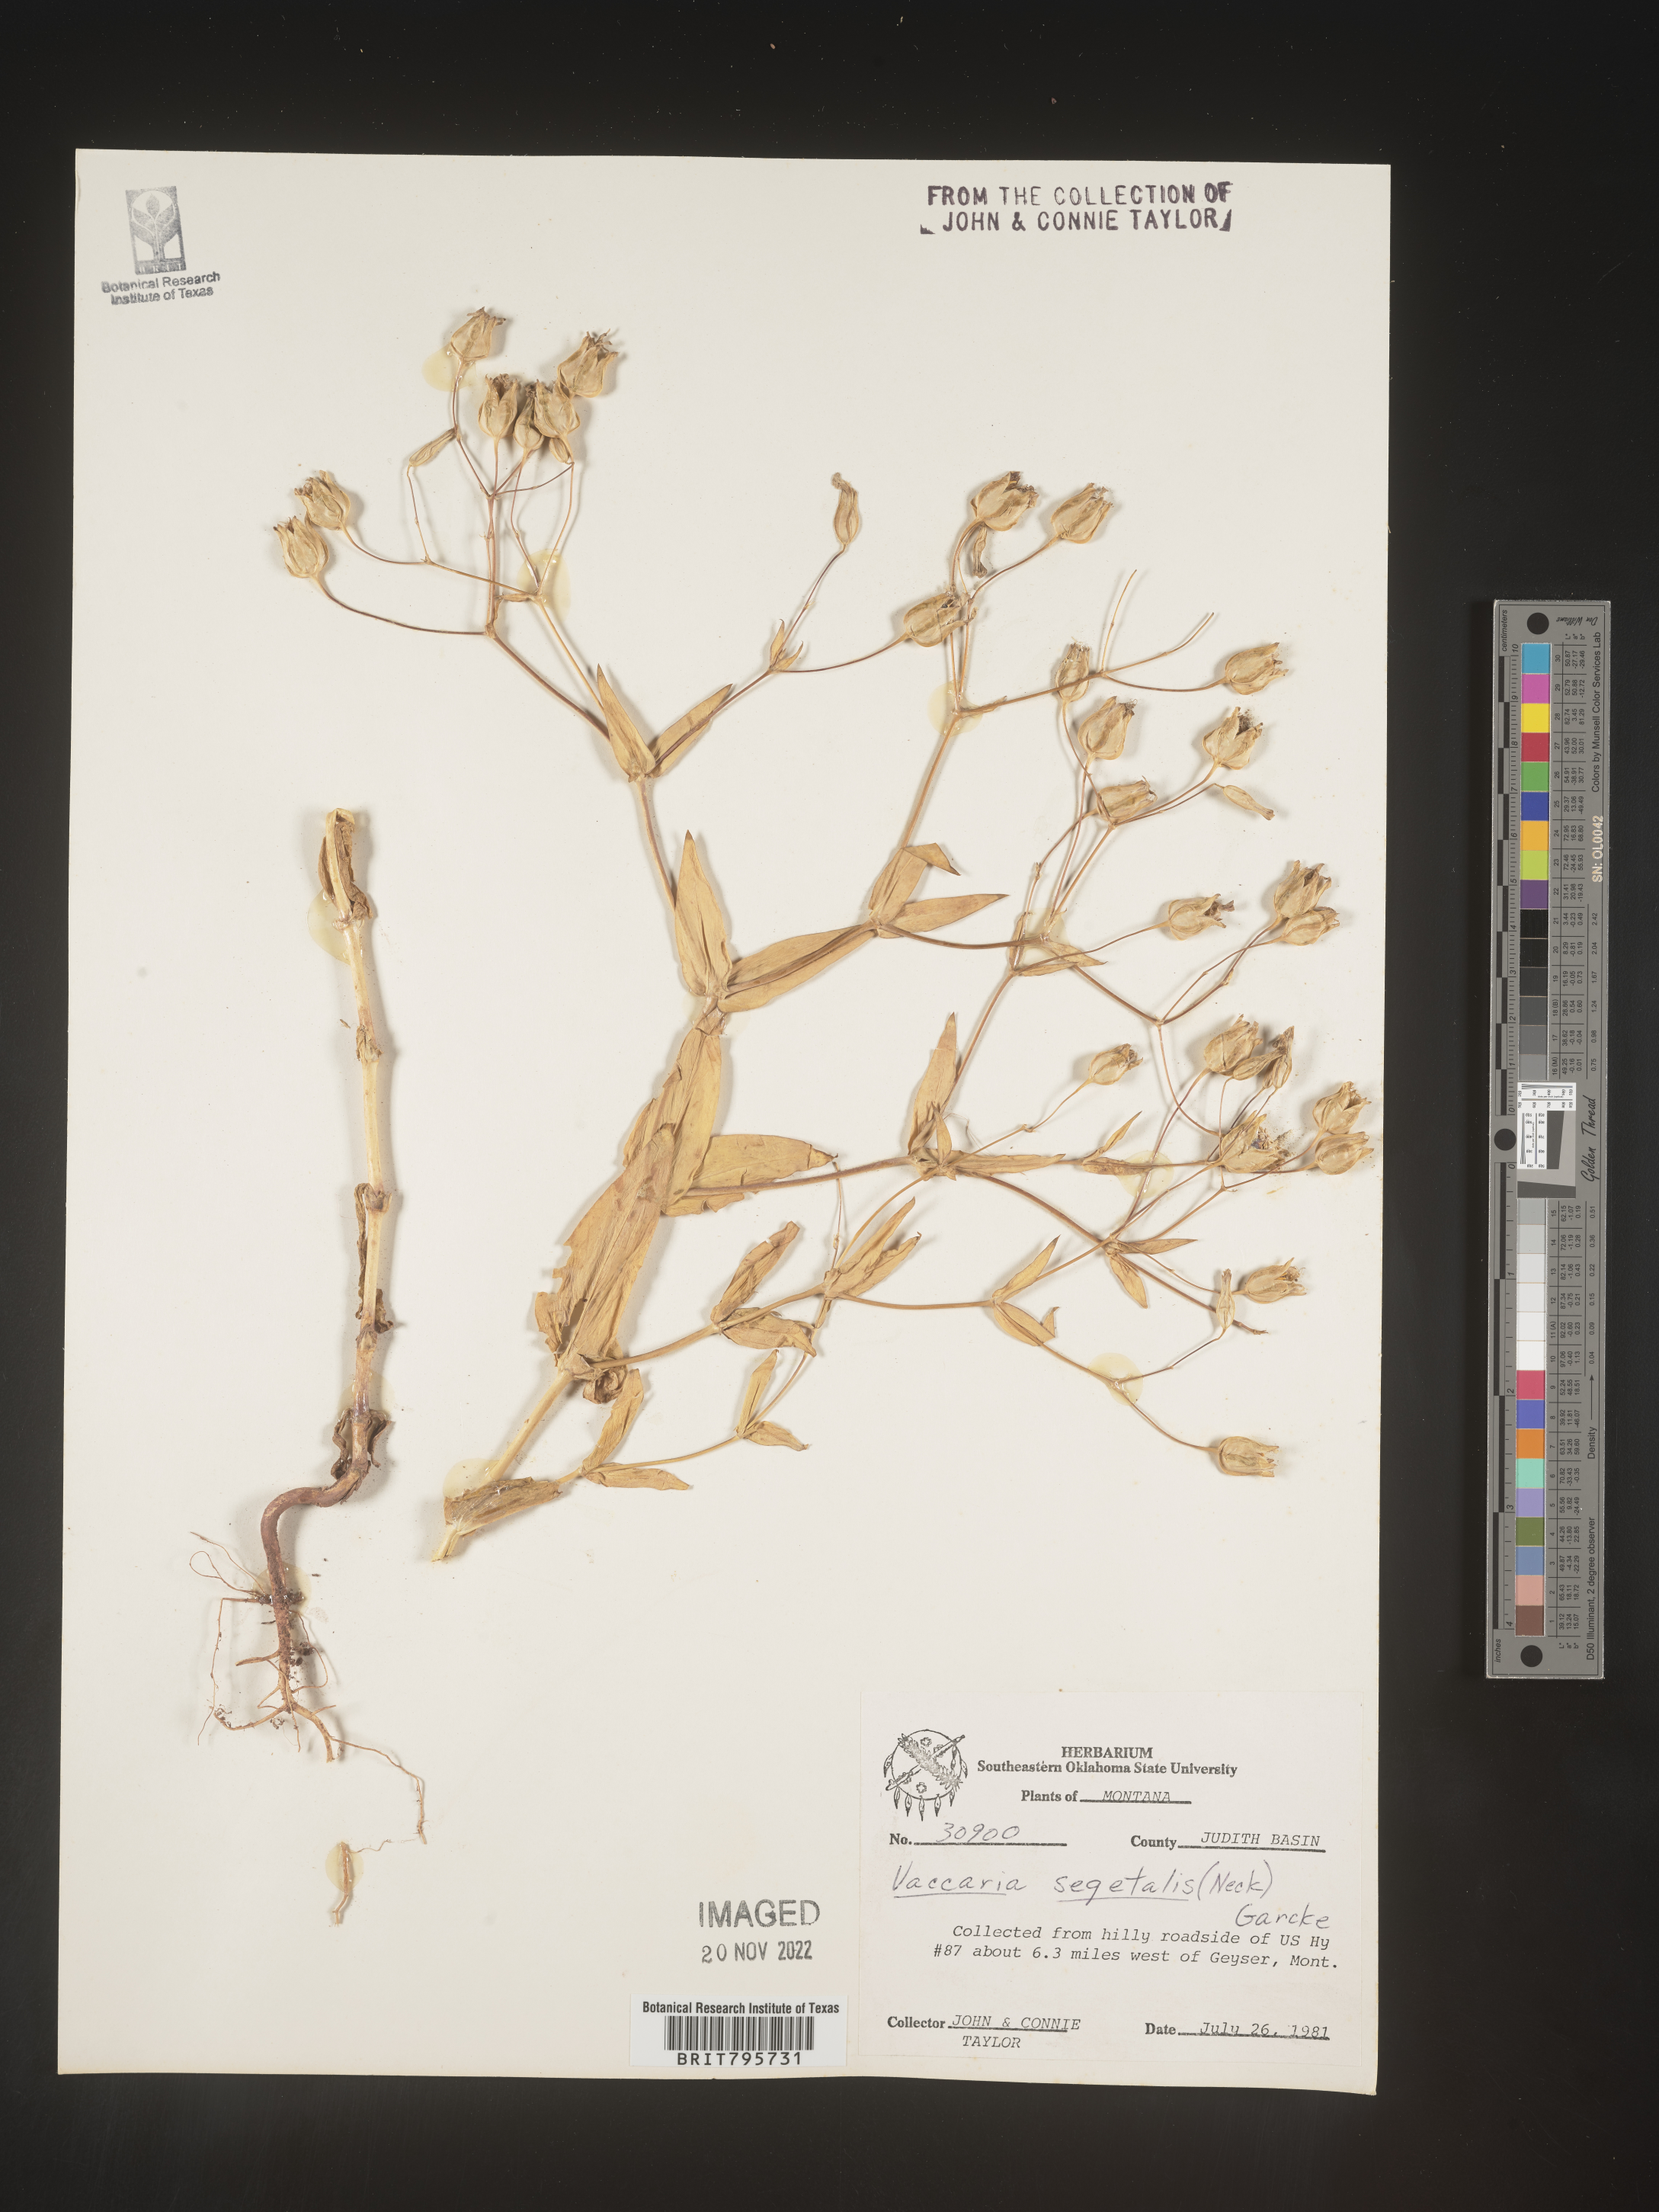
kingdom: Plantae
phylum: Tracheophyta
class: Magnoliopsida
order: Caryophyllales
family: Caryophyllaceae
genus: Vaccaria
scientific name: Vaccaria
